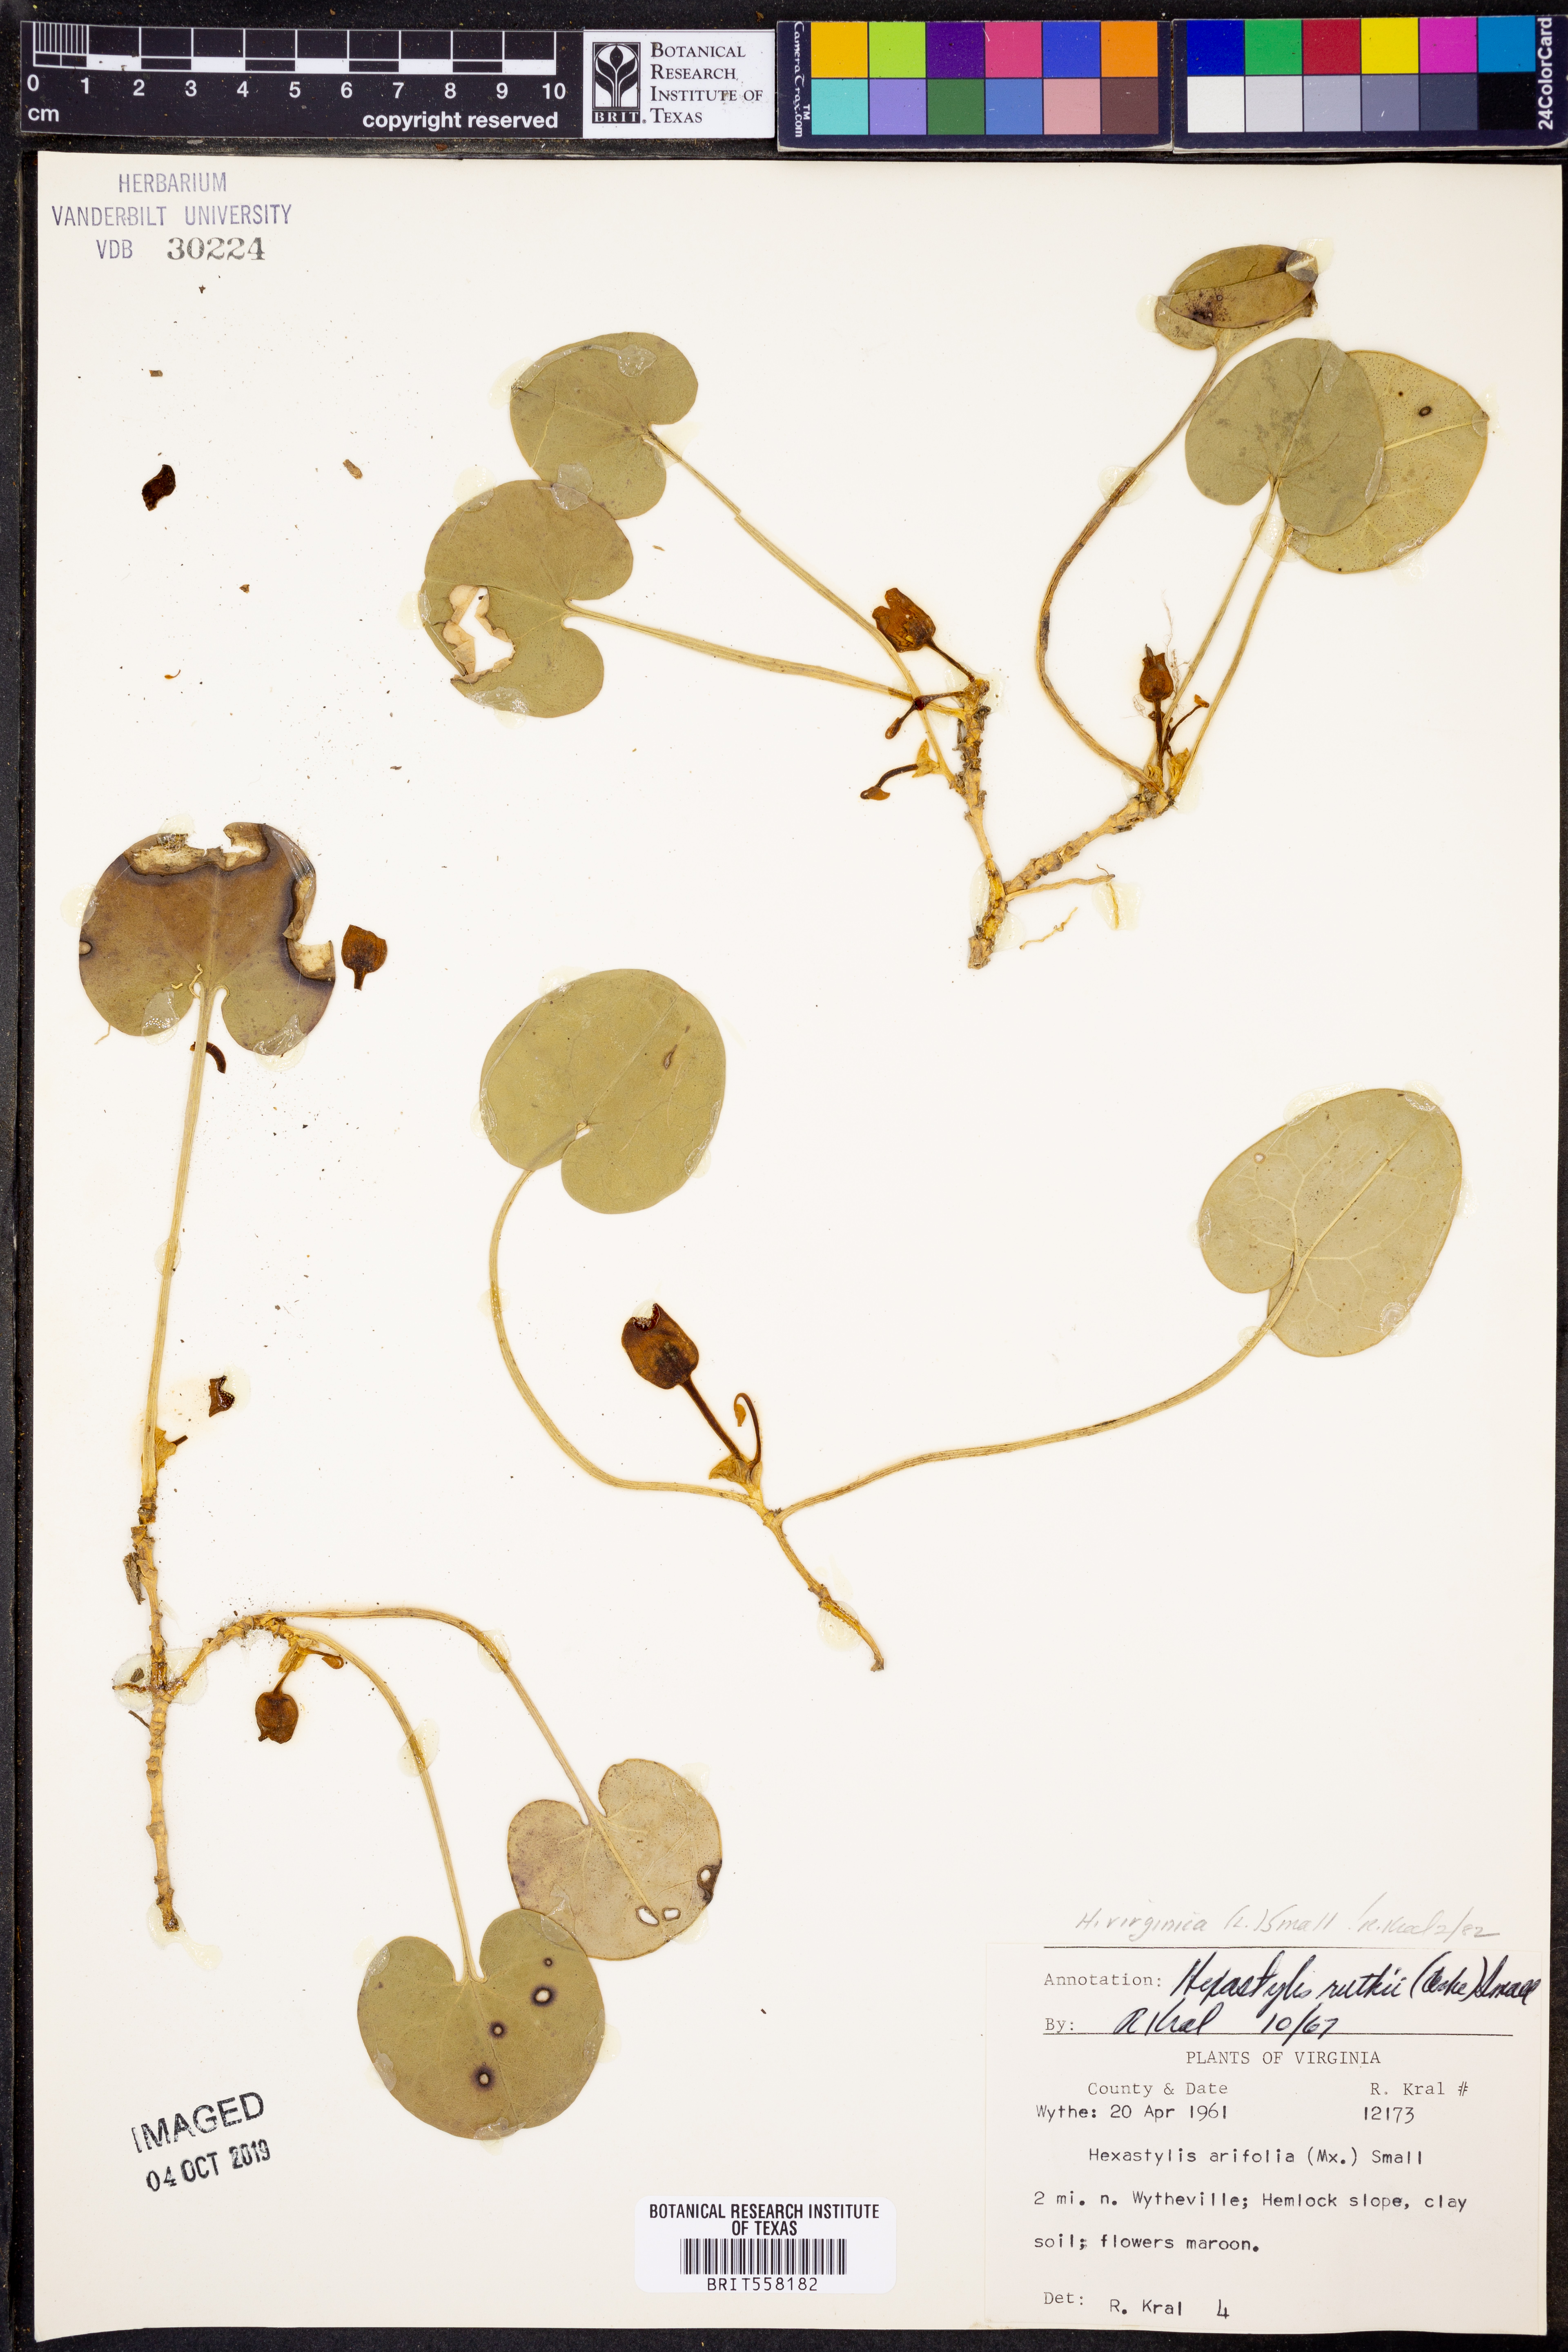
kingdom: Plantae
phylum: Tracheophyta
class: Magnoliopsida
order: Piperales
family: Aristolochiaceae
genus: Hexastylis
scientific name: Hexastylis virginica
